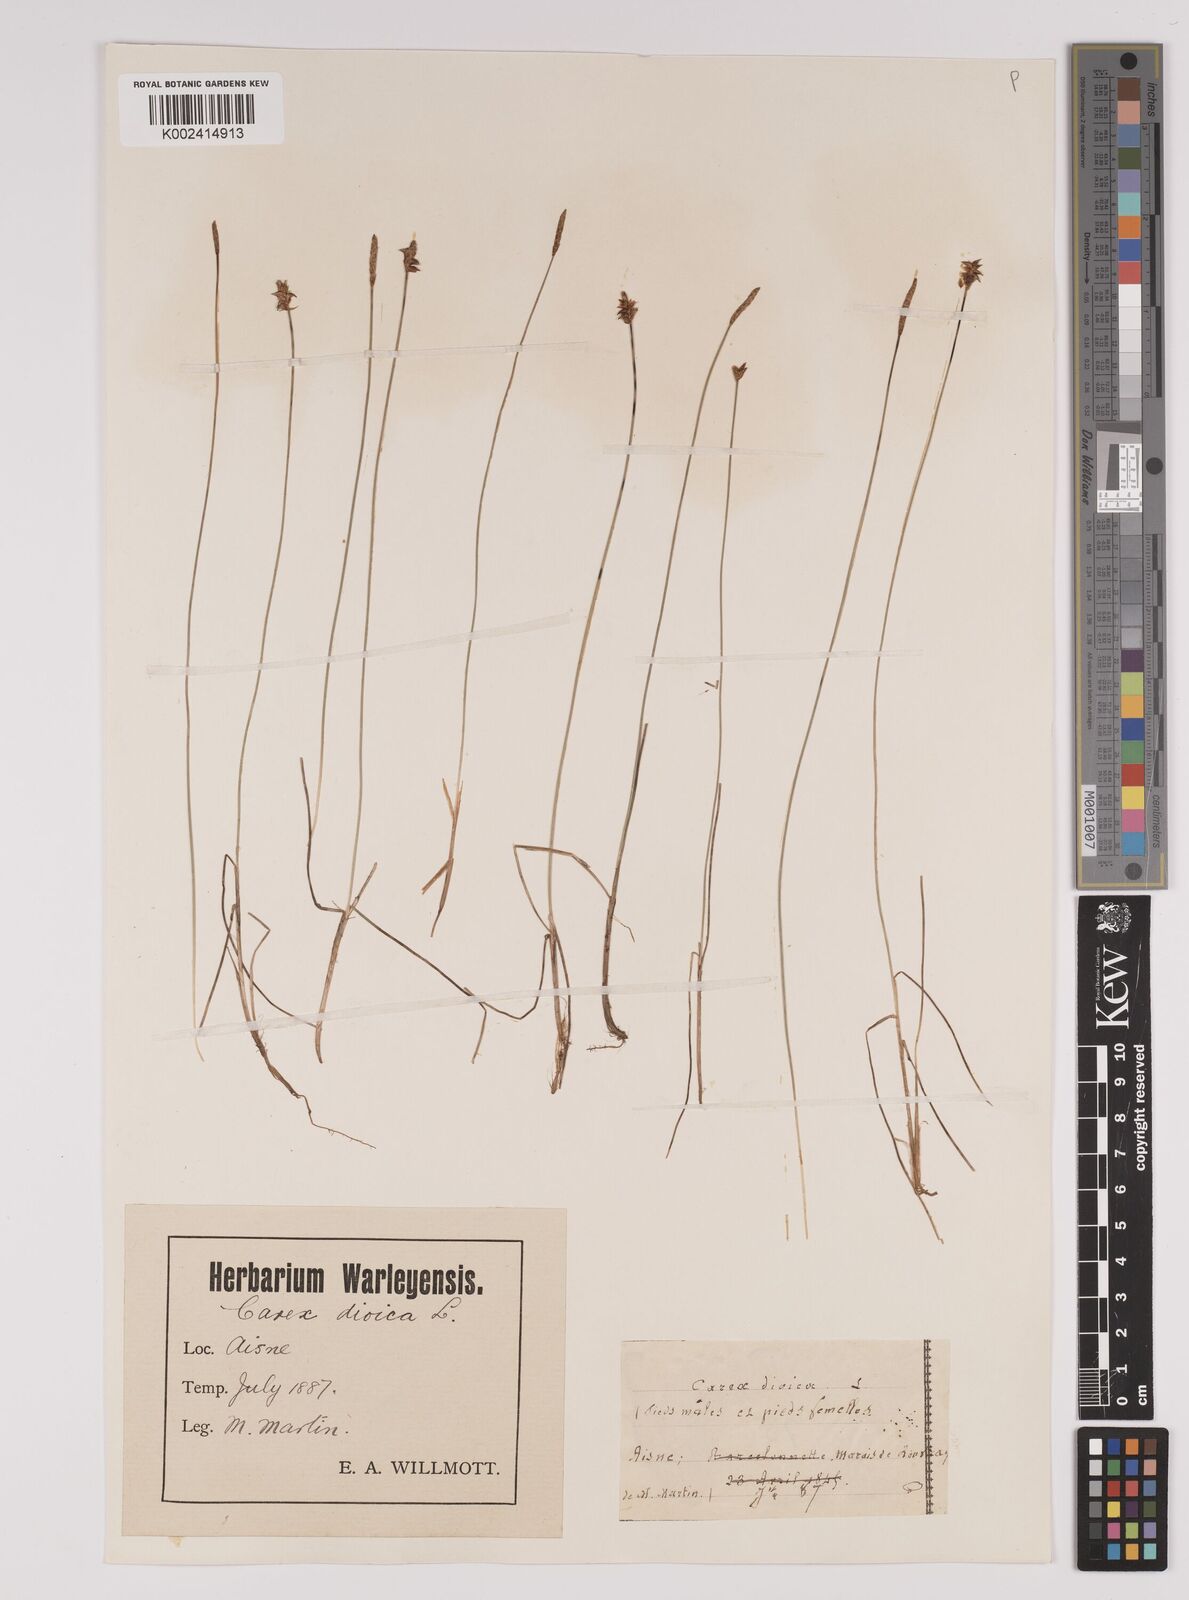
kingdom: Plantae
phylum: Tracheophyta
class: Liliopsida
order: Poales
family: Cyperaceae
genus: Carex
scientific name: Carex dioica
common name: Dioecious sedge
